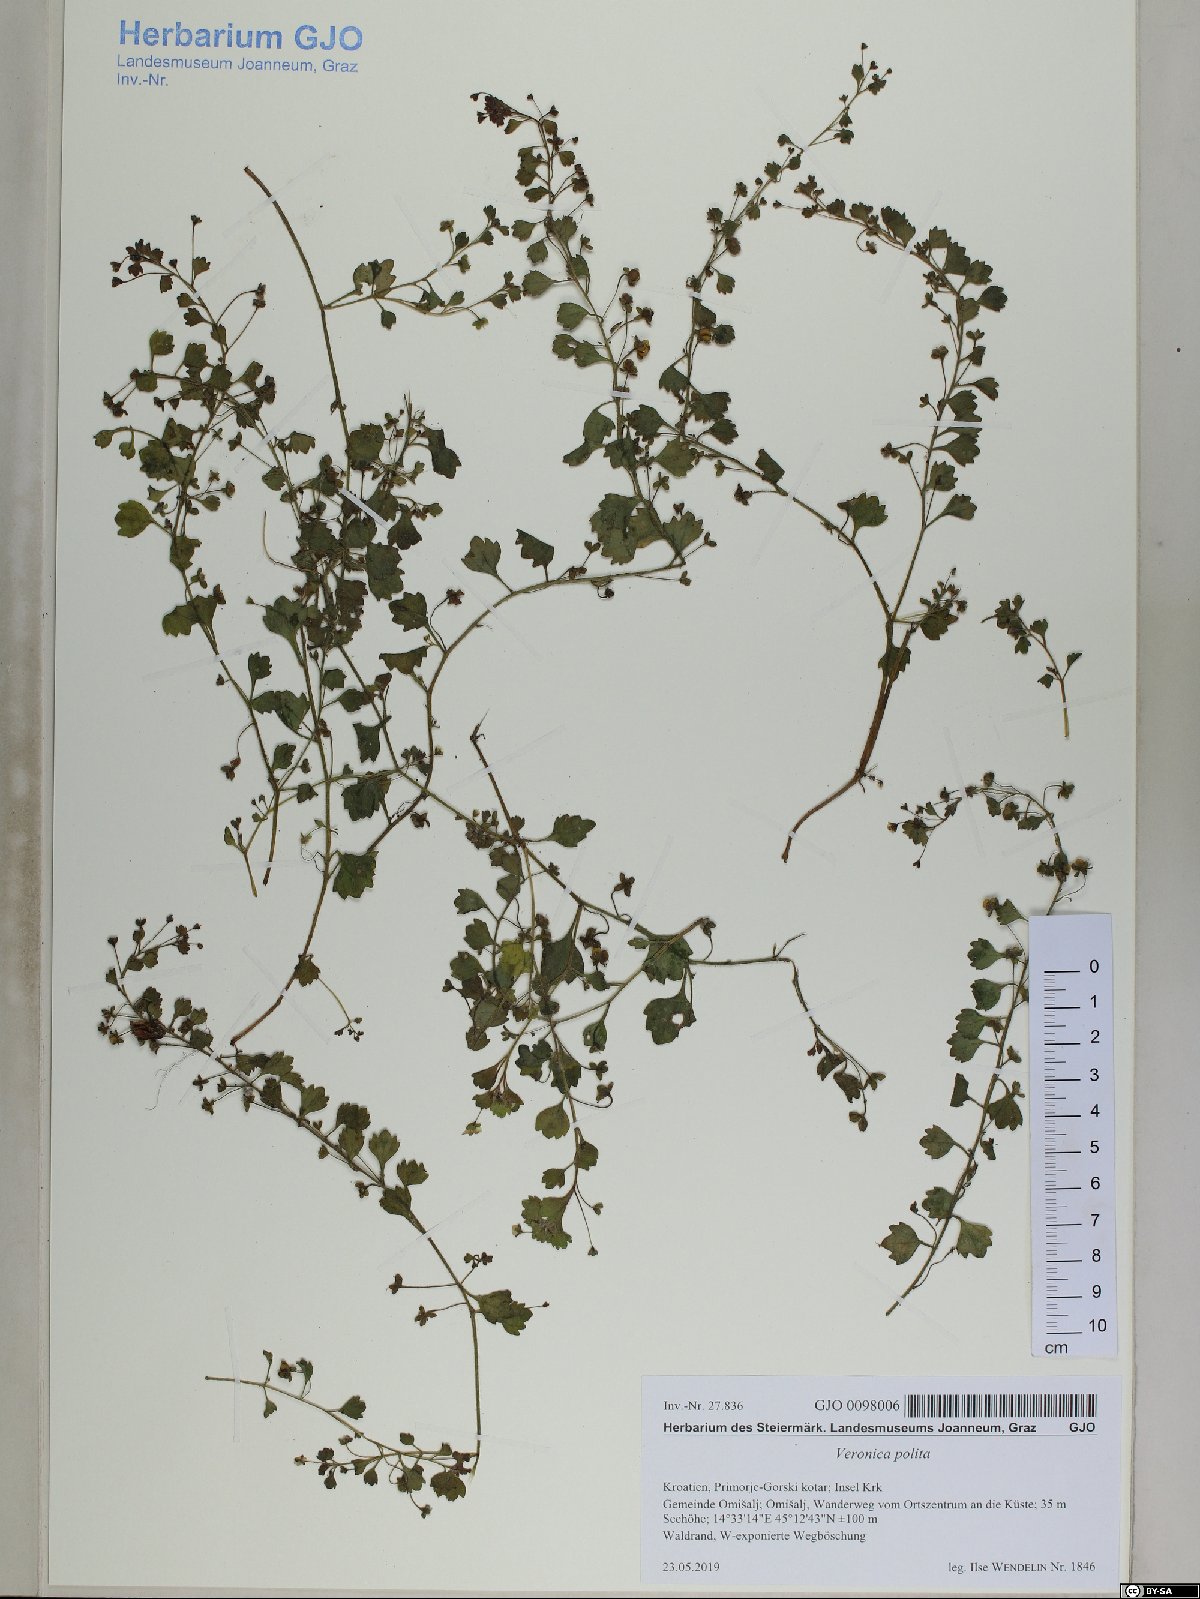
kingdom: Plantae
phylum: Tracheophyta
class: Magnoliopsida
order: Lamiales
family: Plantaginaceae
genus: Veronica
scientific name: Veronica cymbalaria
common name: Pale speedwell
